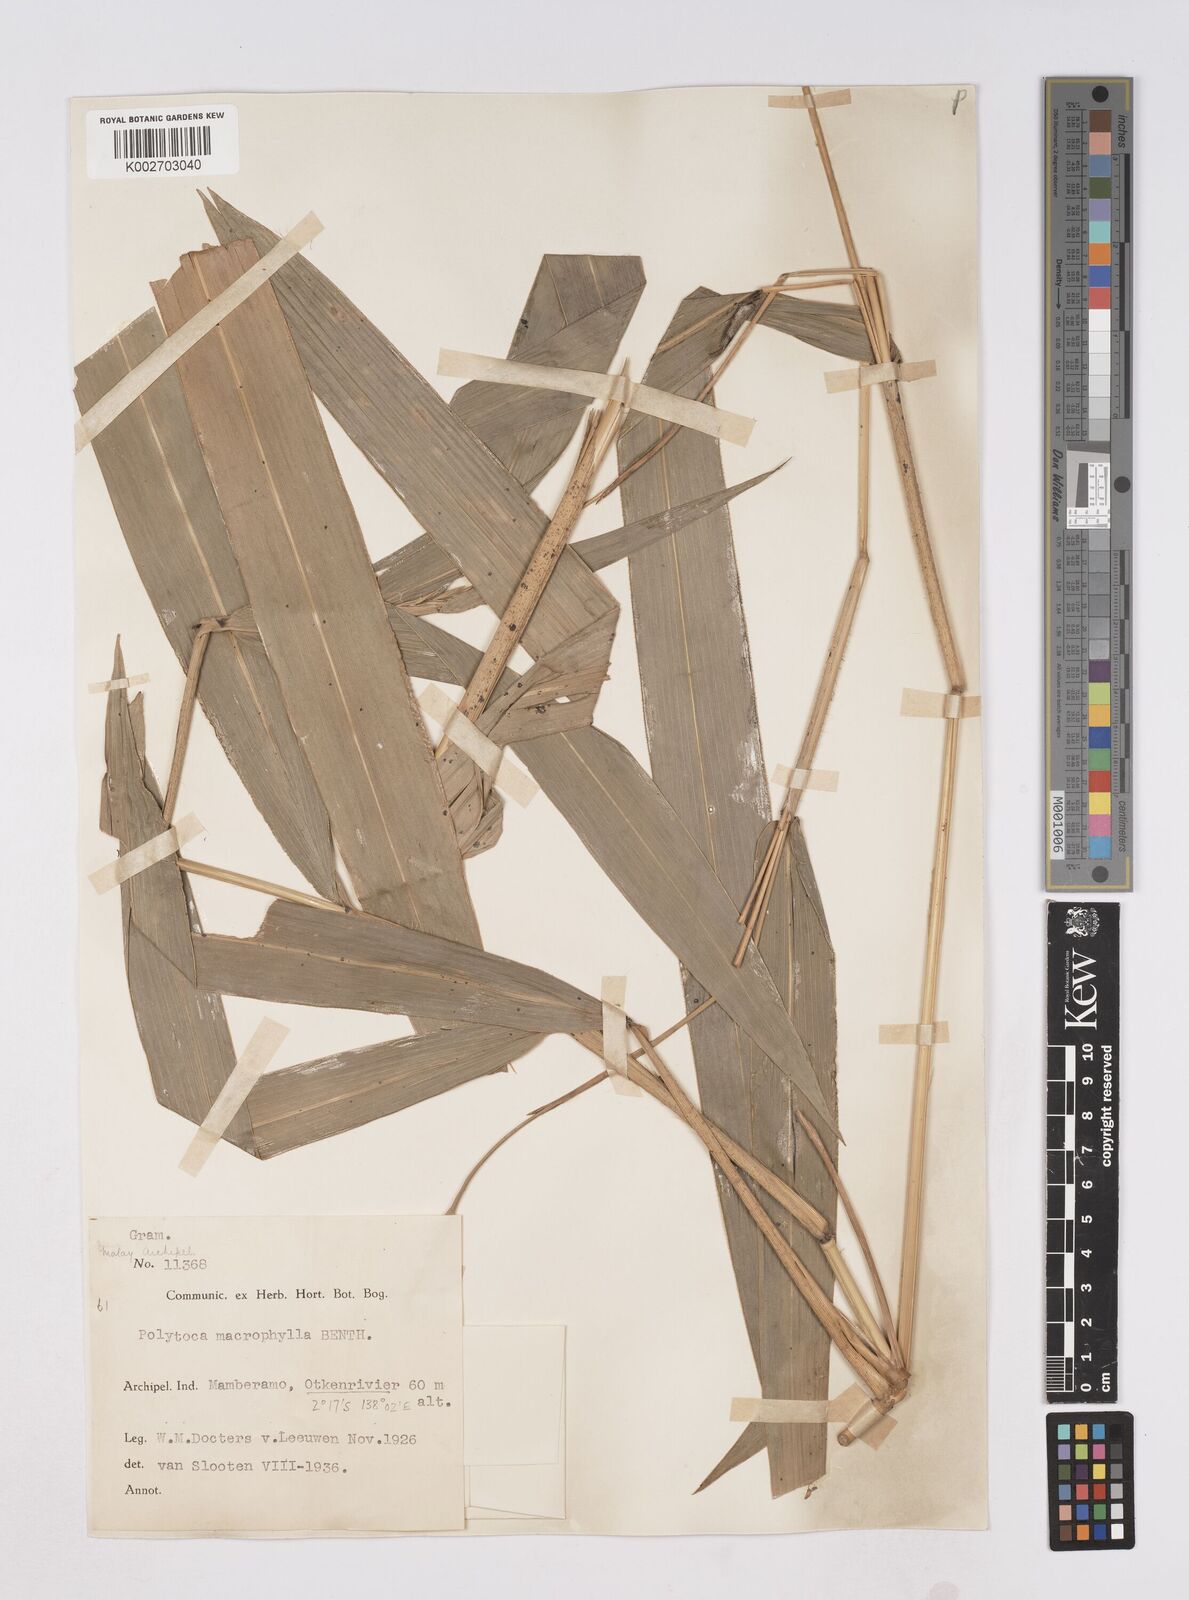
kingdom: Plantae
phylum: Tracheophyta
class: Liliopsida
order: Poales
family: Poaceae
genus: Polytoca
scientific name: Polytoca macrophylla
